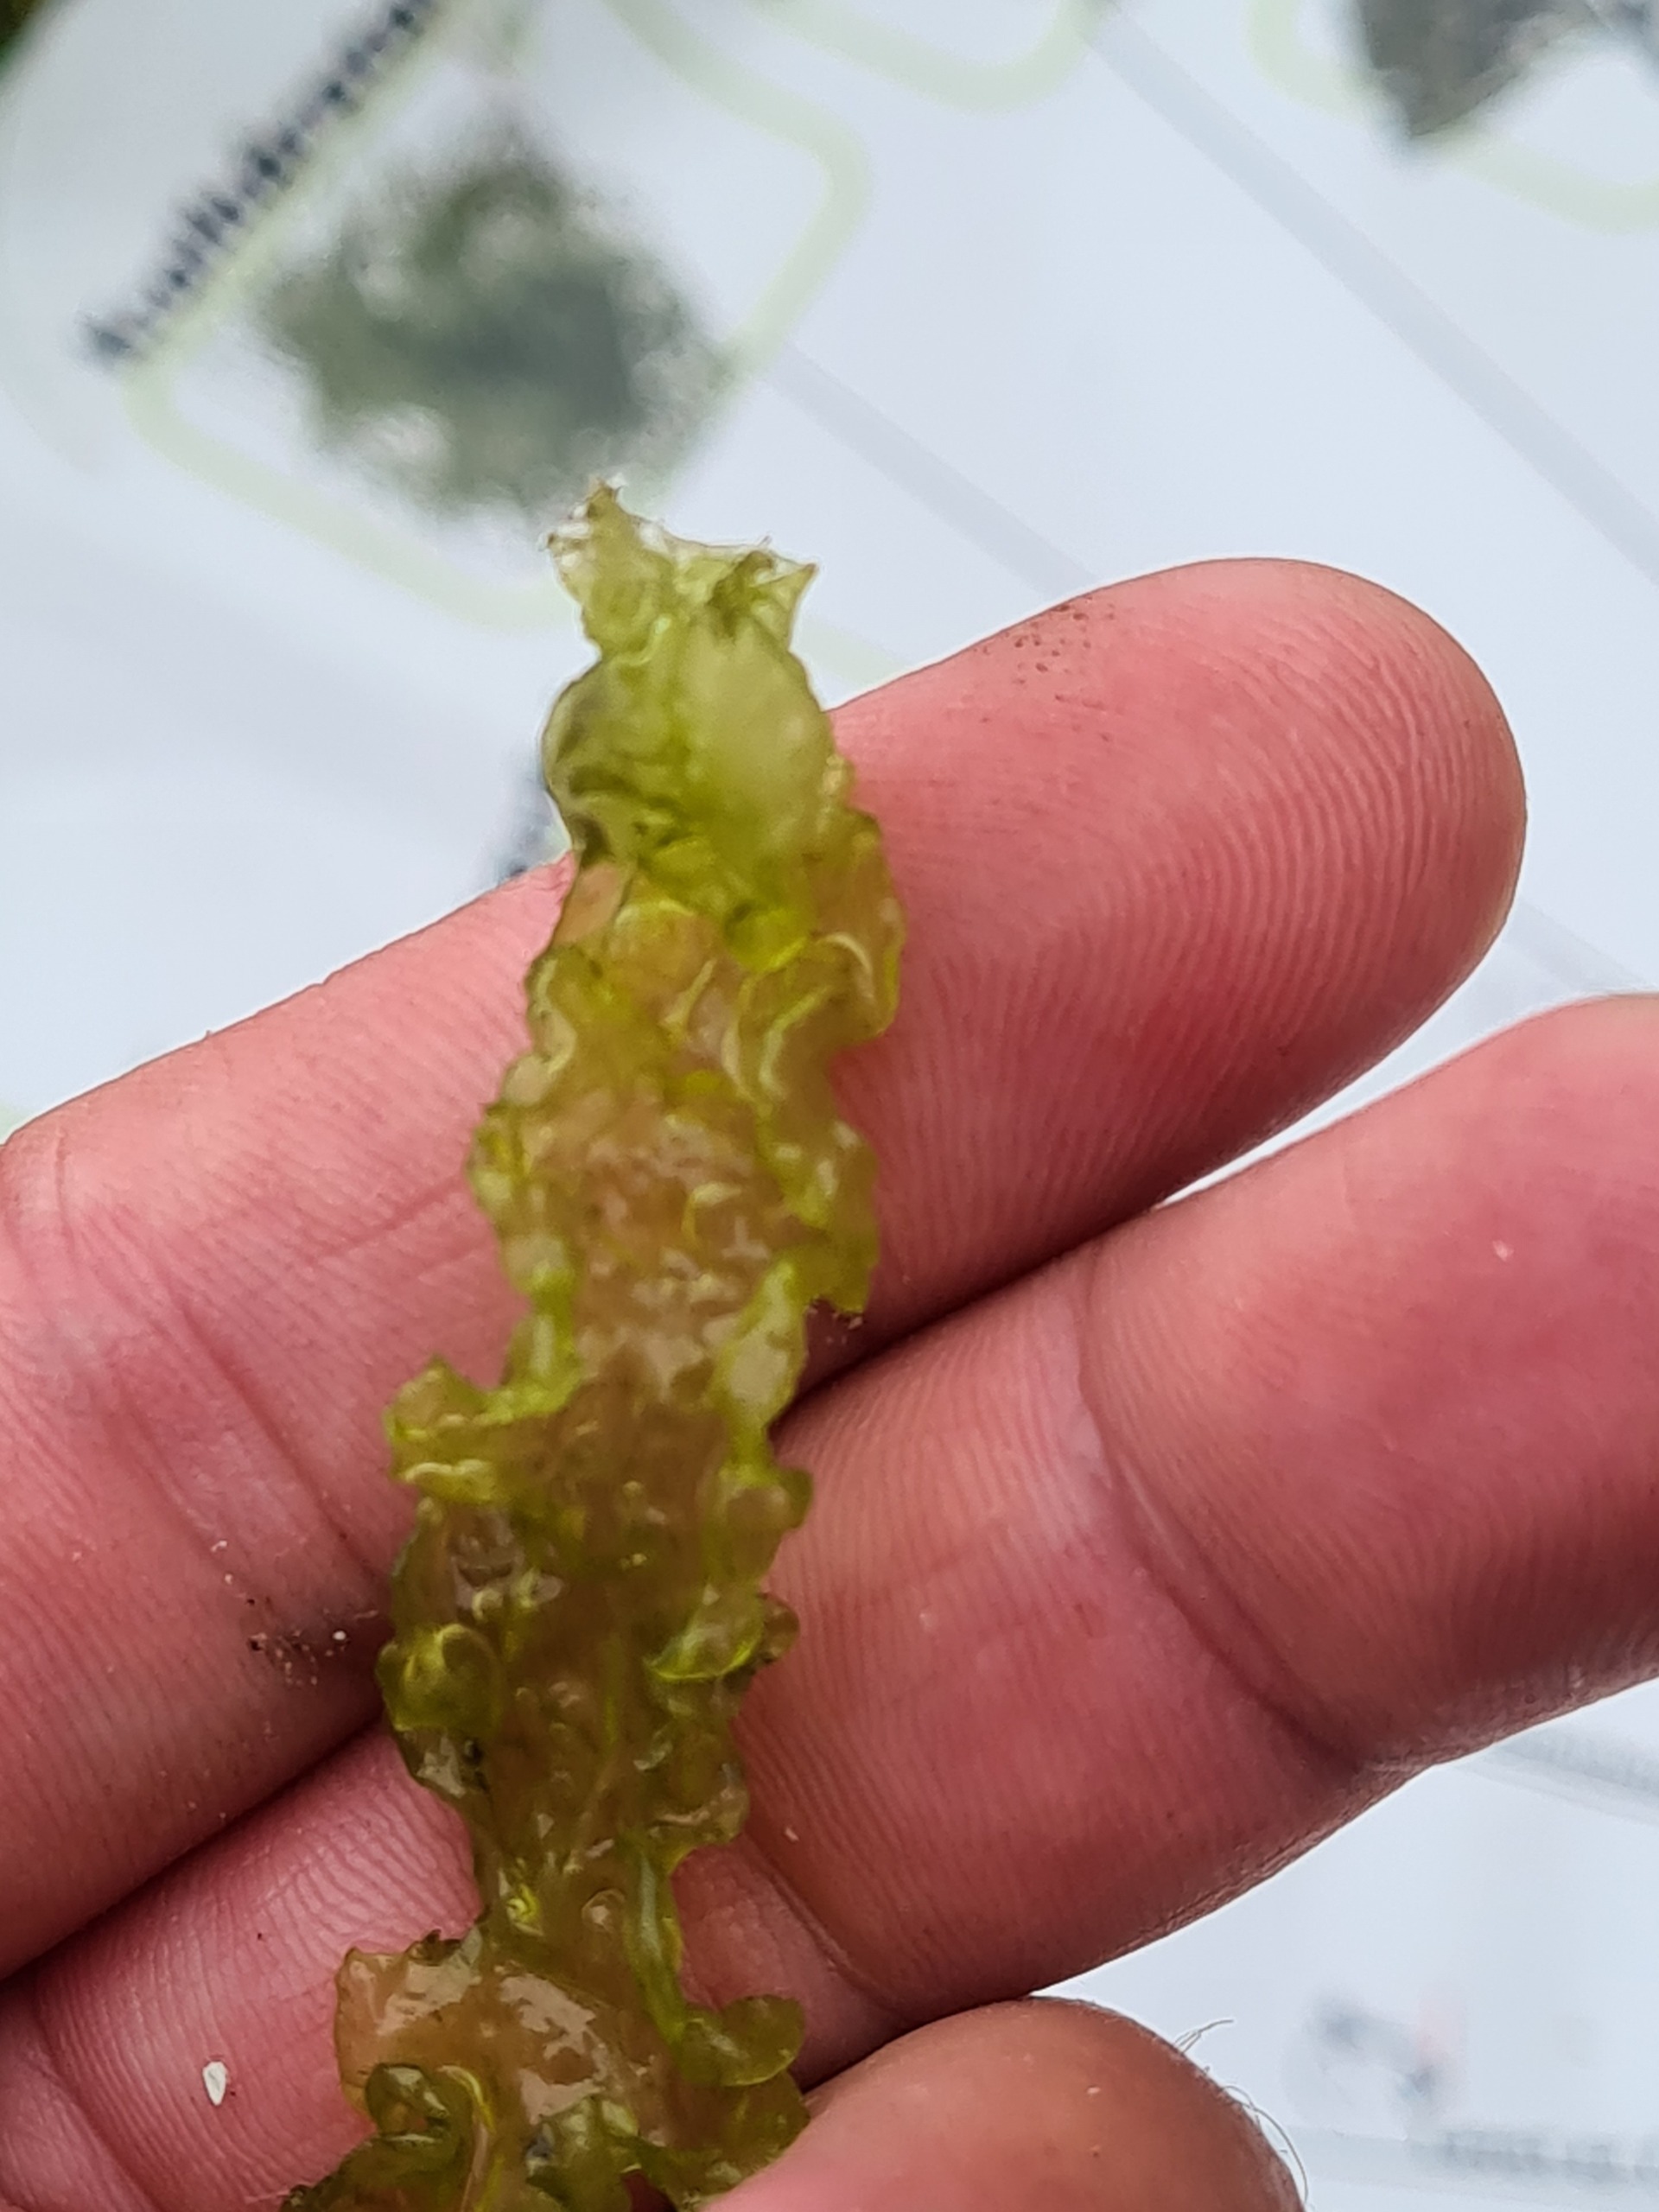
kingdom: Plantae
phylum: Chlorophyta
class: Ulvophyceae
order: Ulvales
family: Ulvaceae
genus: Ulva
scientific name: Ulva intestinalis
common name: Tarm-rørhinde
